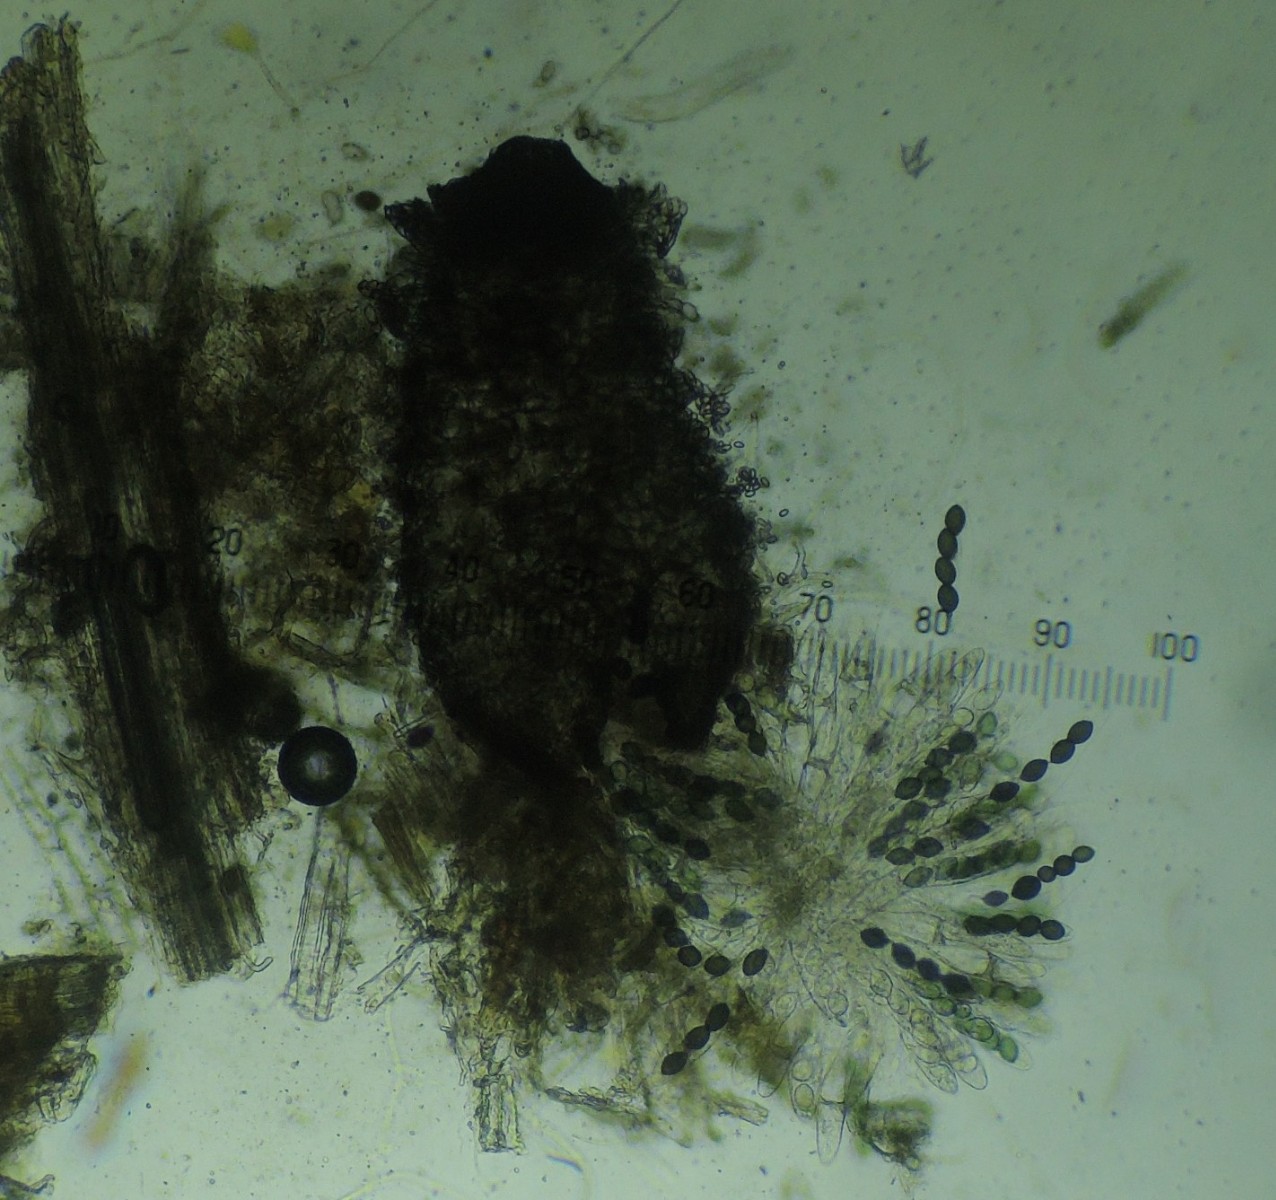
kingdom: Fungi
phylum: Ascomycota
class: Sordariomycetes
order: Sordariales
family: Neoschizotheciaceae
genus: Neoschizothecium
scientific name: Neoschizothecium tetrasporum
